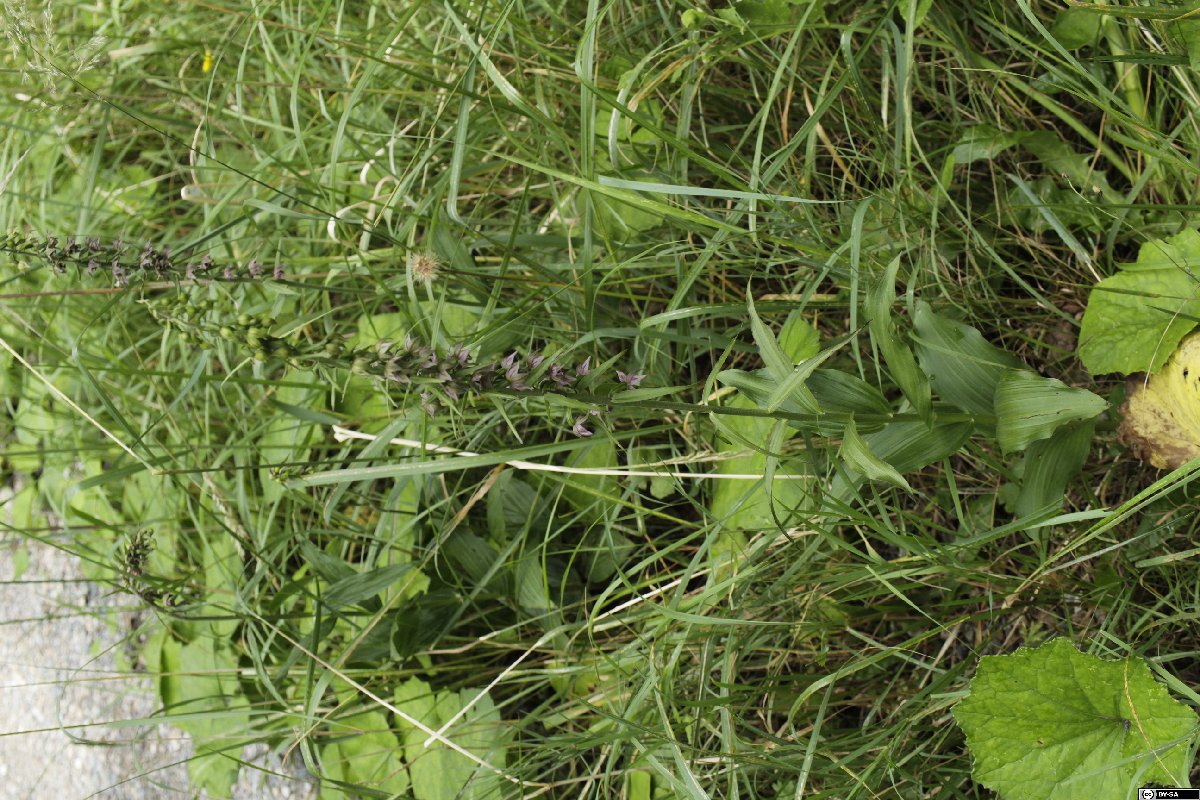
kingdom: Plantae
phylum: Tracheophyta
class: Liliopsida
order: Asparagales
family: Orchidaceae
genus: Epipactis
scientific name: Epipactis helleborine
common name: Broad-leaved helleborine
